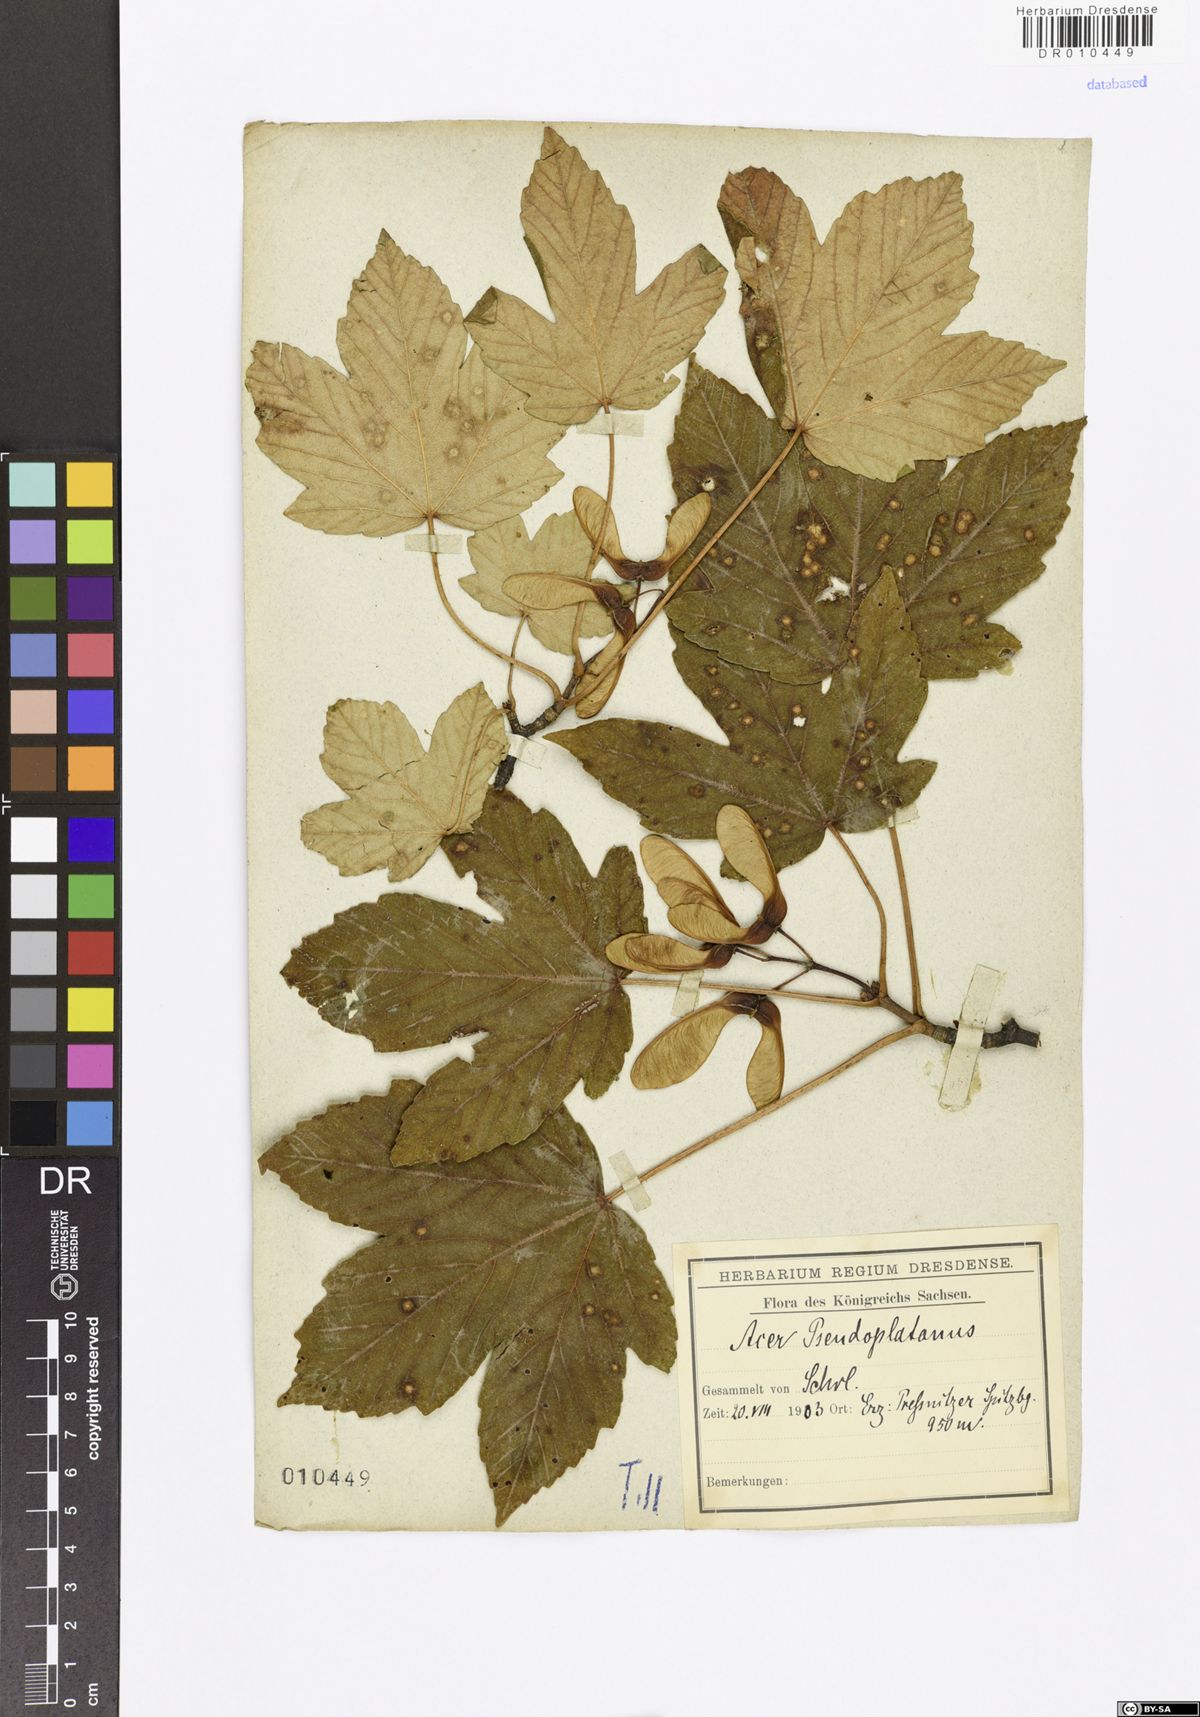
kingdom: Plantae
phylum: Tracheophyta
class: Magnoliopsida
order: Sapindales
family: Sapindaceae
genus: Acer
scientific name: Acer pseudoplatanus
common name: Sycamore
